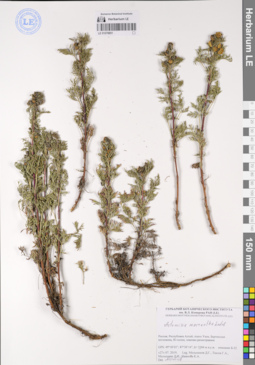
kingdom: Plantae
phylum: Tracheophyta
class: Magnoliopsida
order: Asterales
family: Asteraceae
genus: Artemisia
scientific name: Artemisia macrantha
